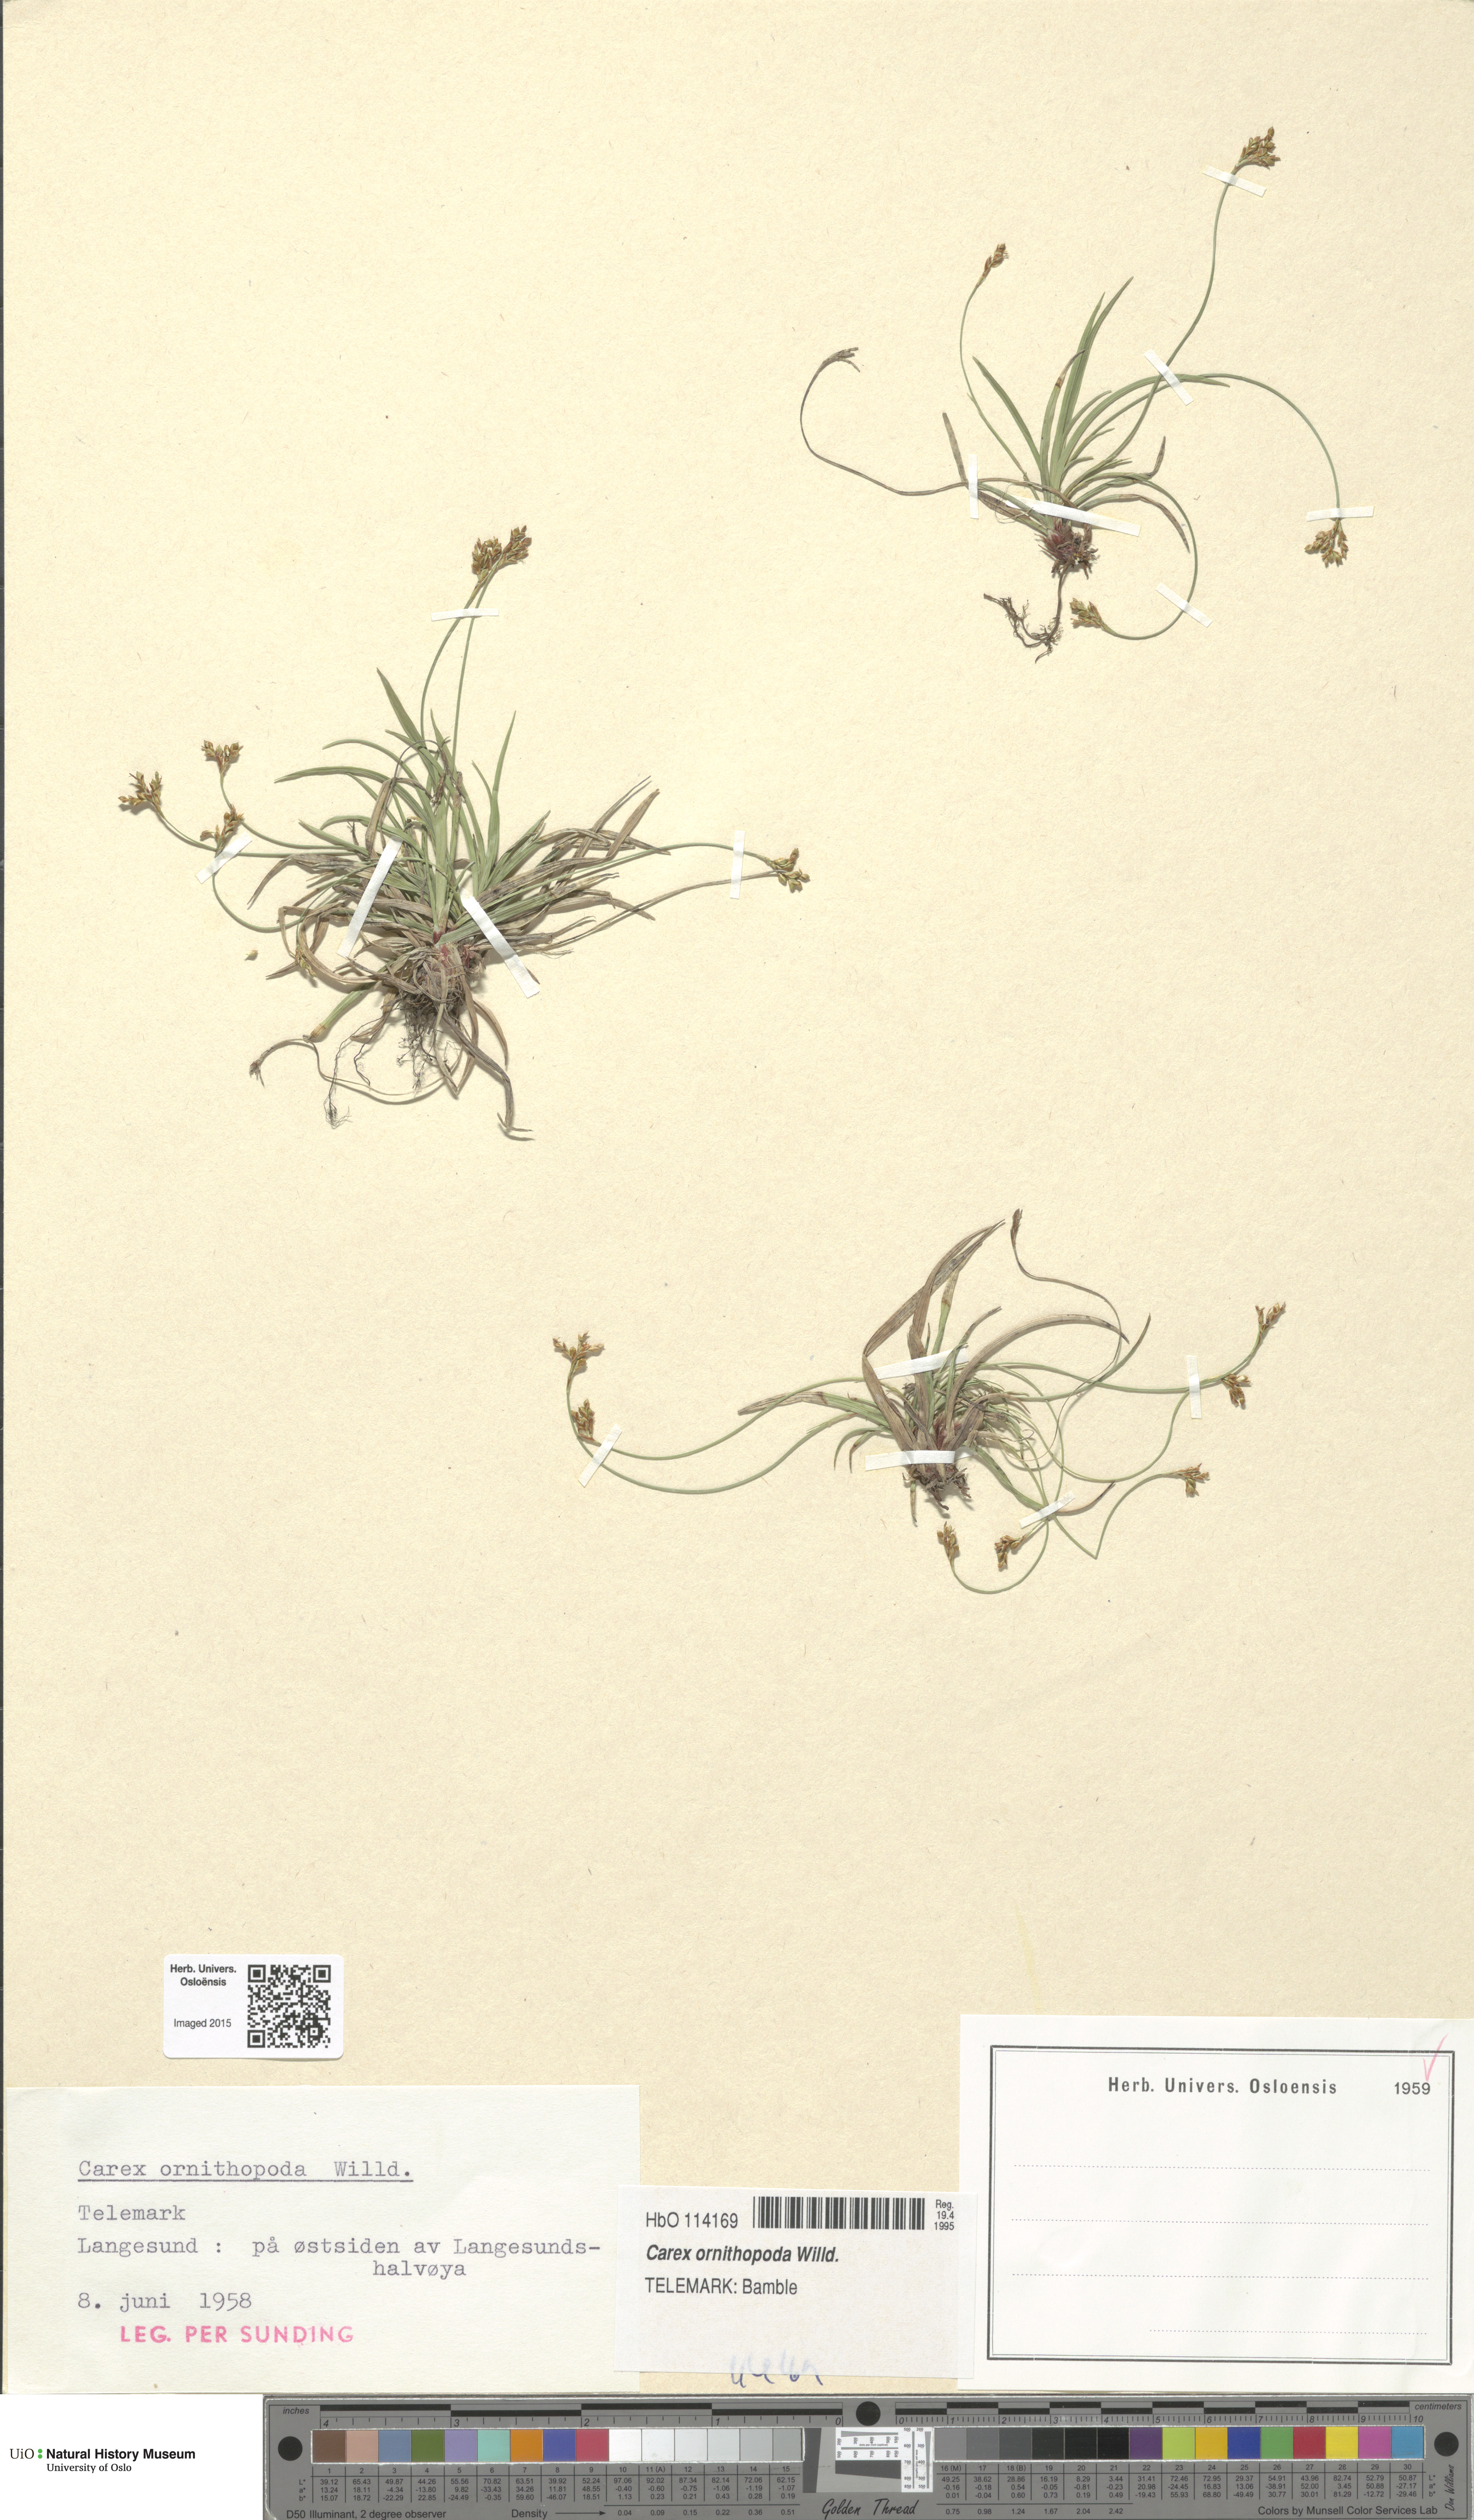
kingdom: Plantae
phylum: Tracheophyta
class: Liliopsida
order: Poales
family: Cyperaceae
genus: Carex
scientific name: Carex ornithopoda
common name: Bird's-foot sedge
